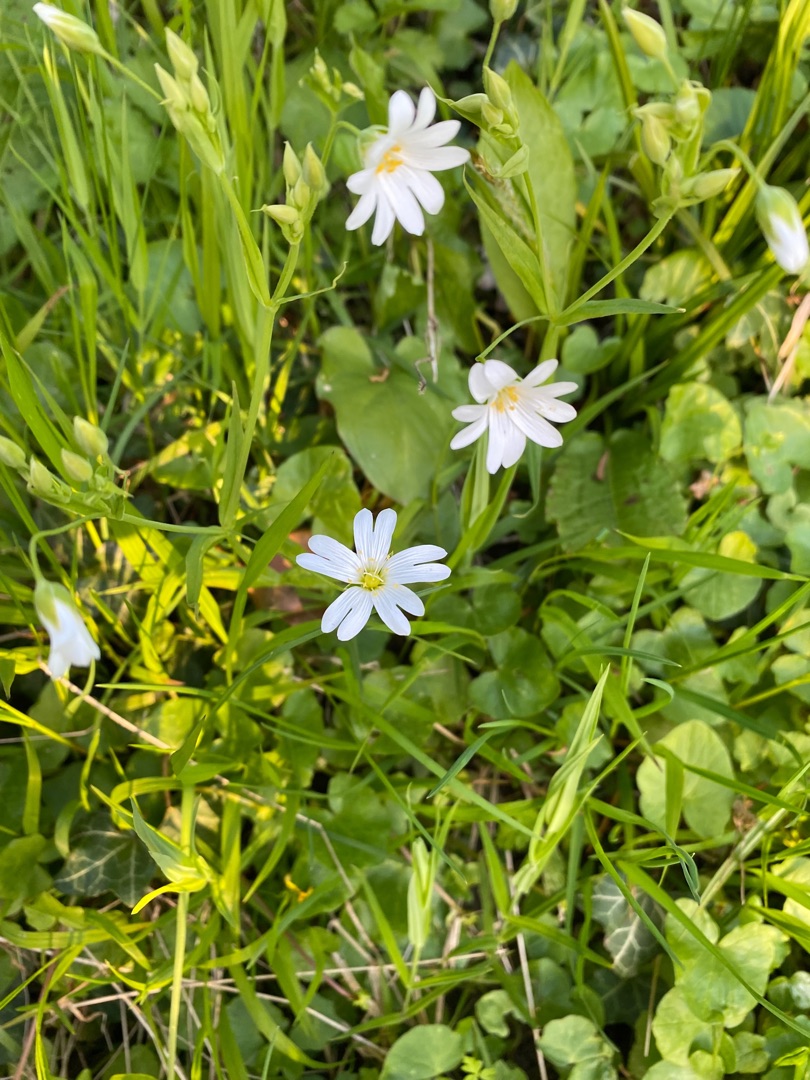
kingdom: Plantae
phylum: Tracheophyta
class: Magnoliopsida
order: Caryophyllales
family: Caryophyllaceae
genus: Rabelera
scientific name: Rabelera holostea
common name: Stor fladstjerne
